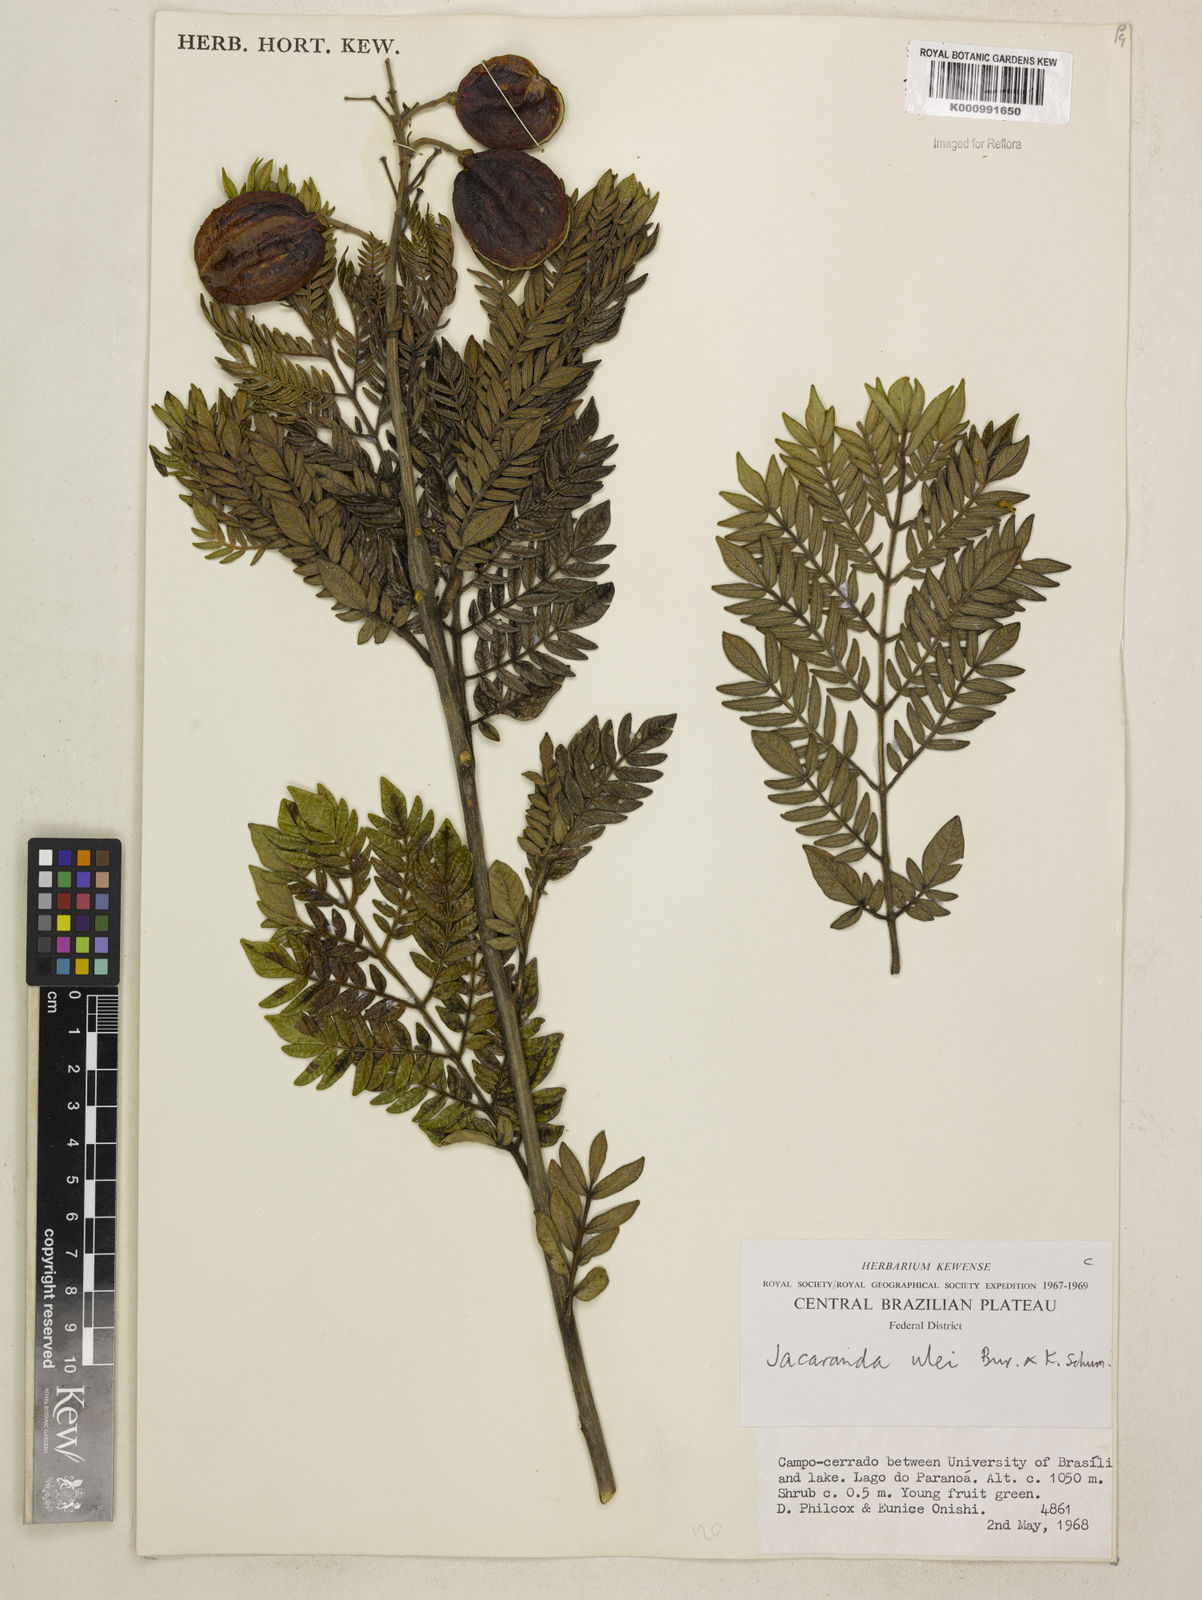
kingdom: Plantae
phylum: Tracheophyta
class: Magnoliopsida
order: Lamiales
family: Bignoniaceae
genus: Jacaranda
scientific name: Jacaranda ulei
